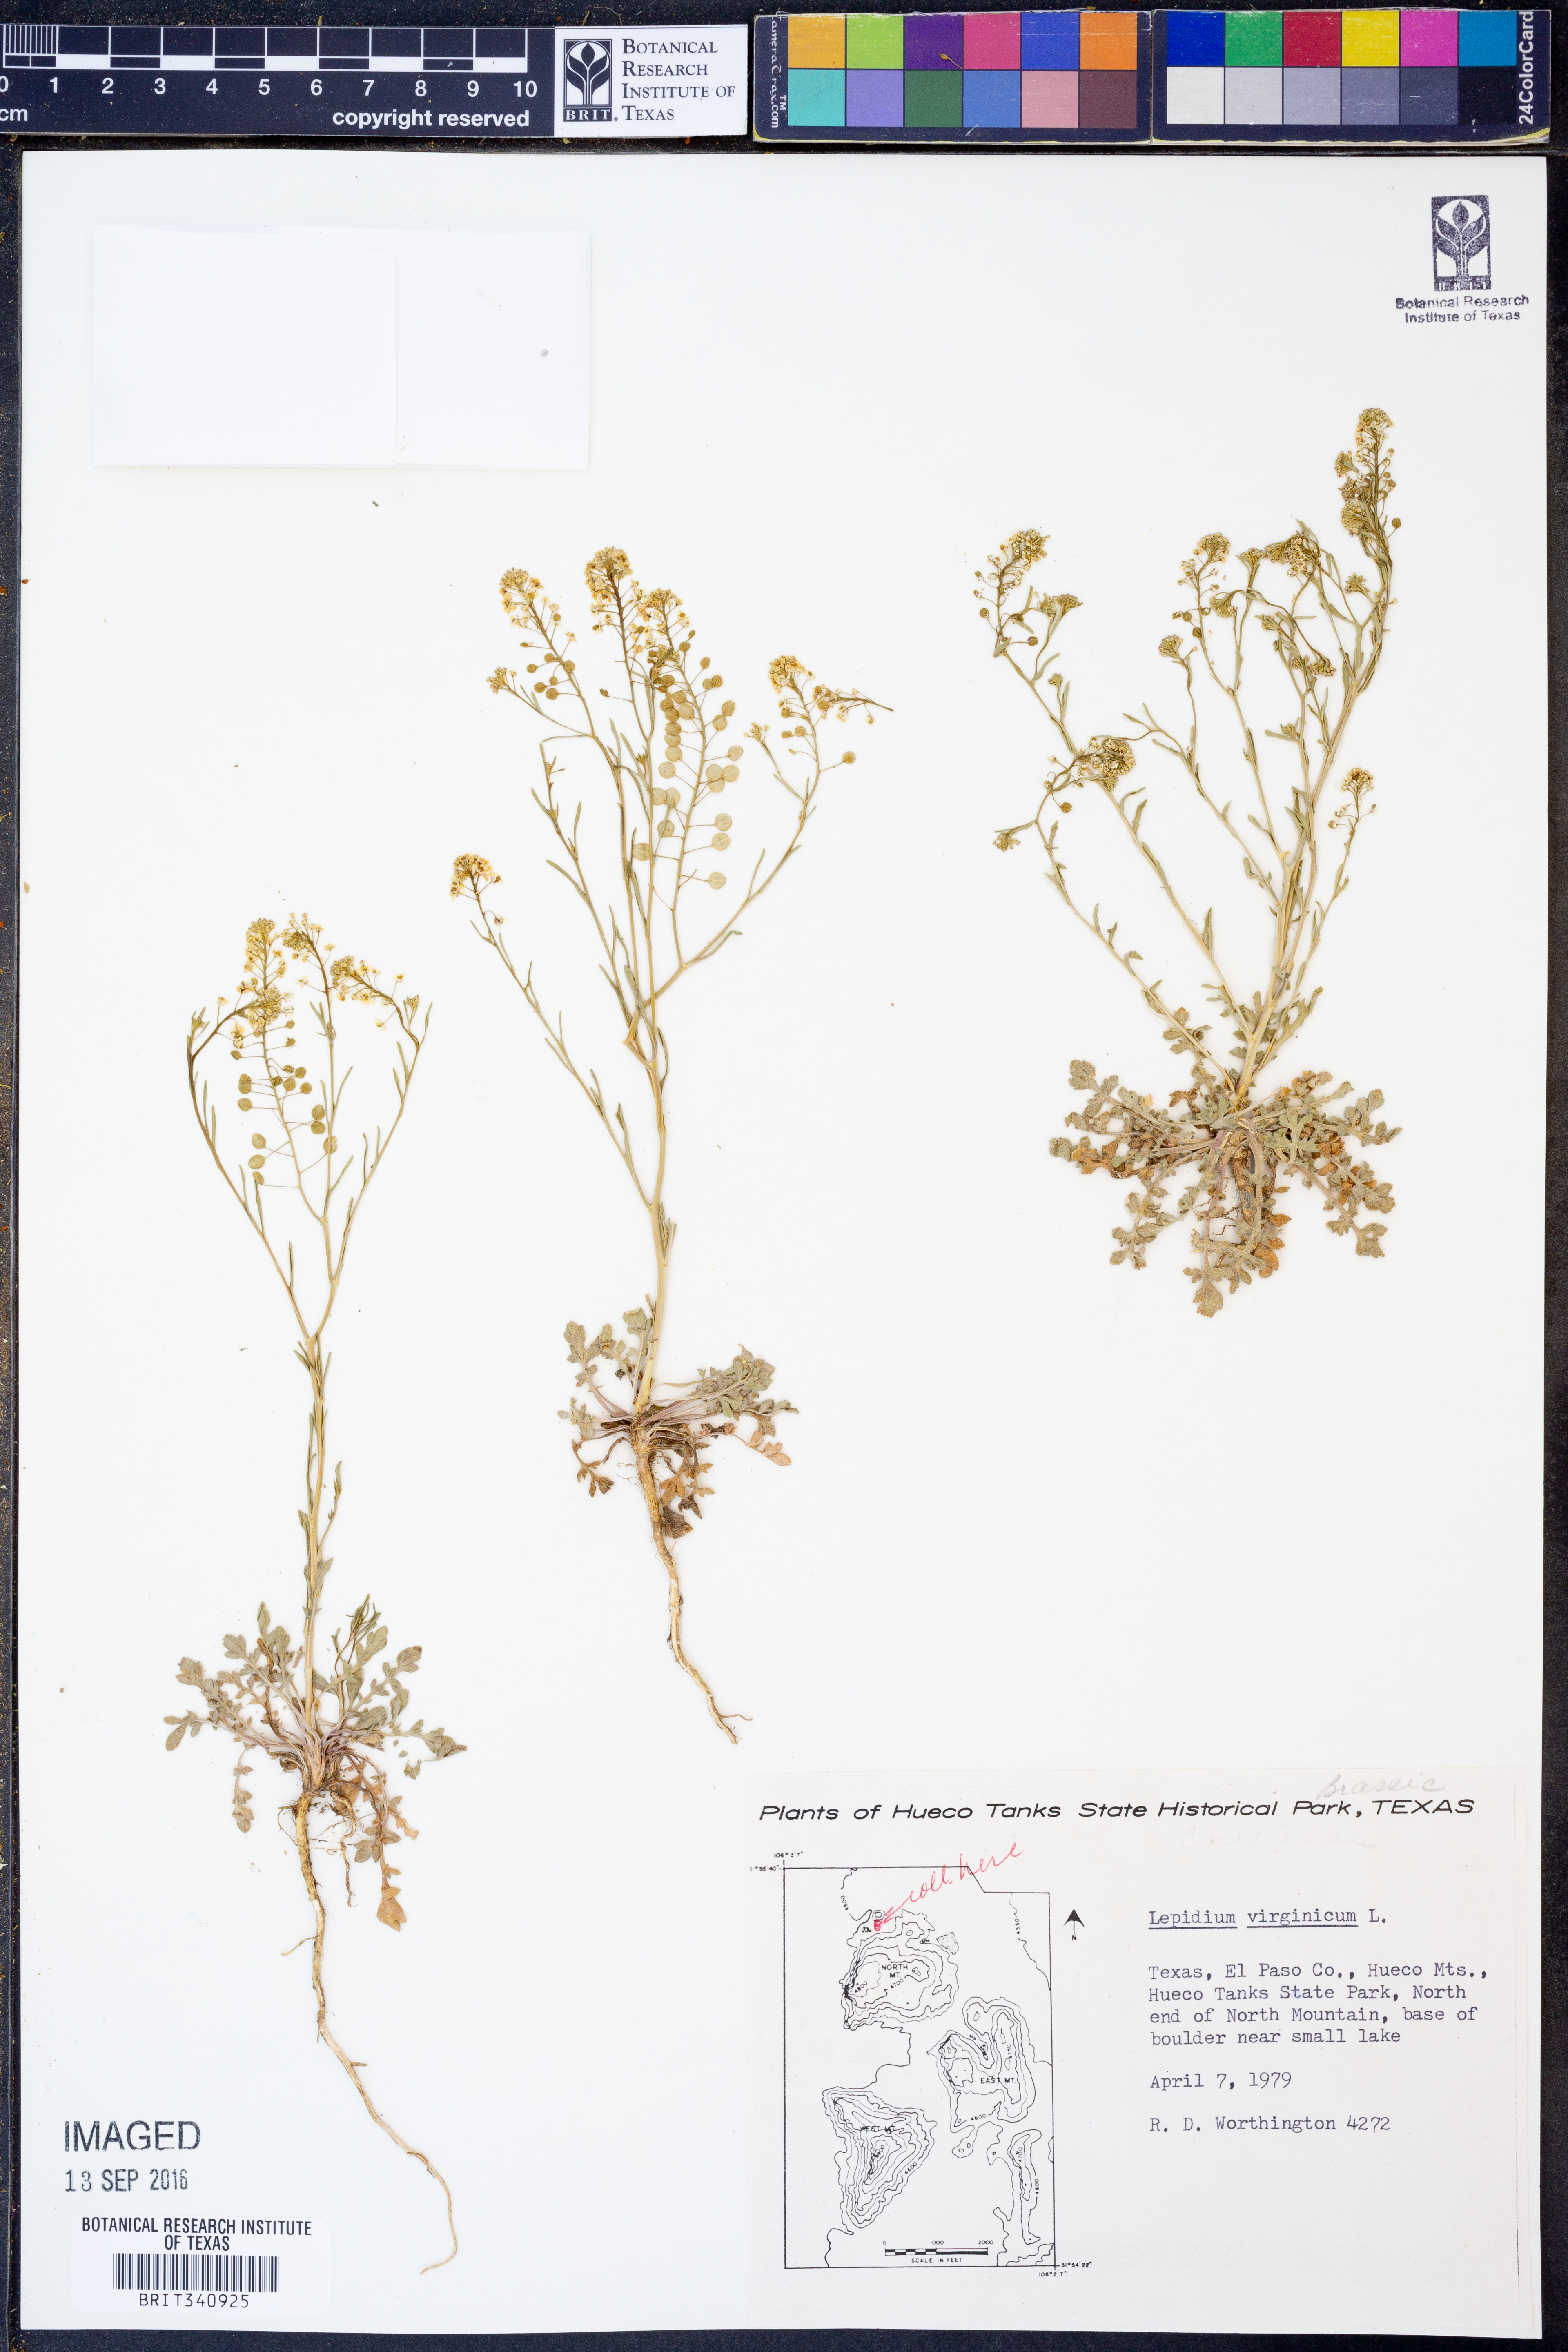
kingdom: Plantae
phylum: Tracheophyta
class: Magnoliopsida
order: Brassicales
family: Brassicaceae
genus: Lepidium
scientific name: Lepidium virginicum
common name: Least pepperwort
